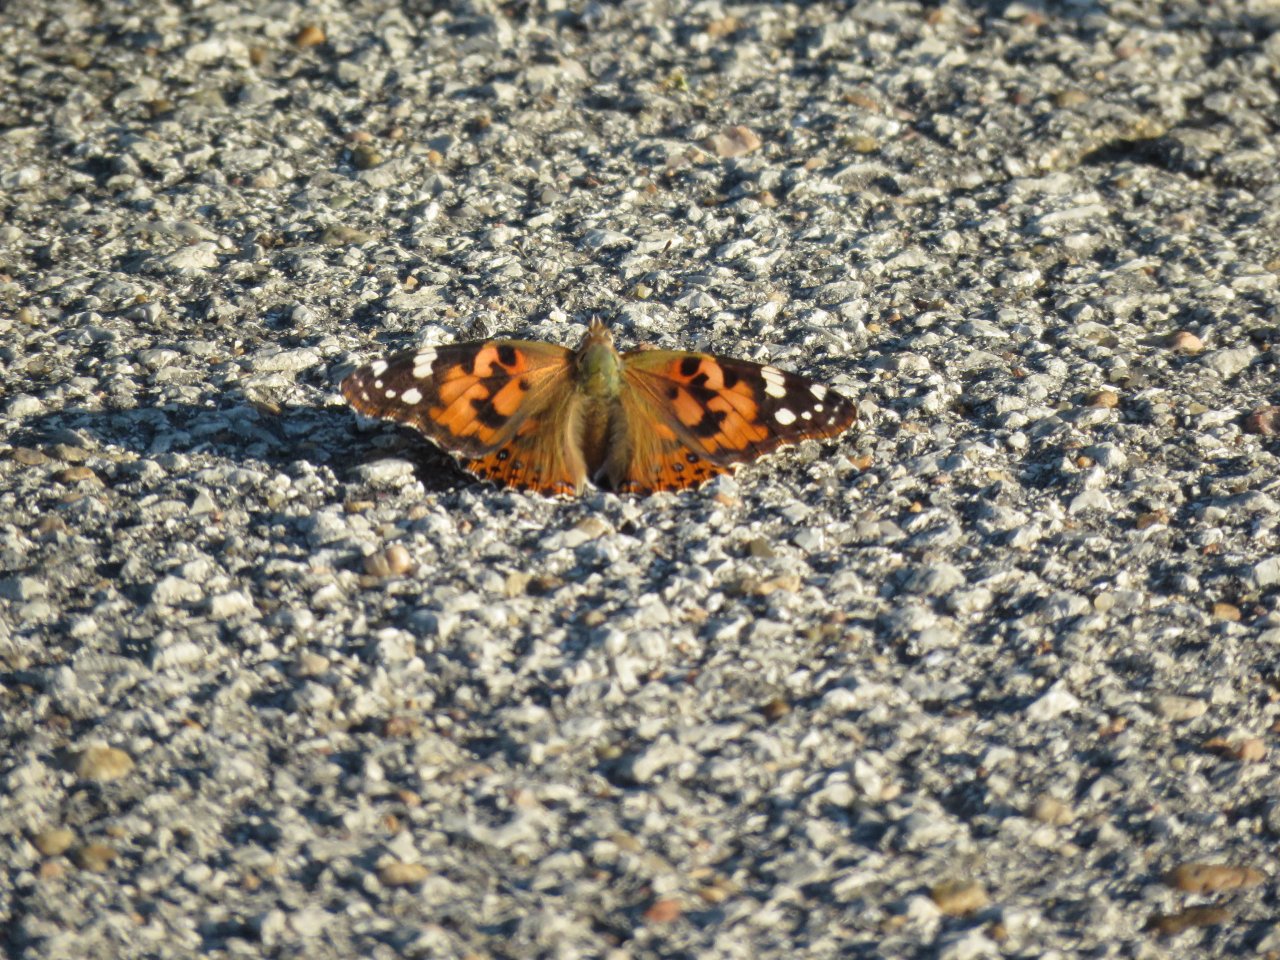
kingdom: Animalia
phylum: Arthropoda
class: Insecta
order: Lepidoptera
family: Nymphalidae
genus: Vanessa
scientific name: Vanessa cardui
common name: Painted Lady
